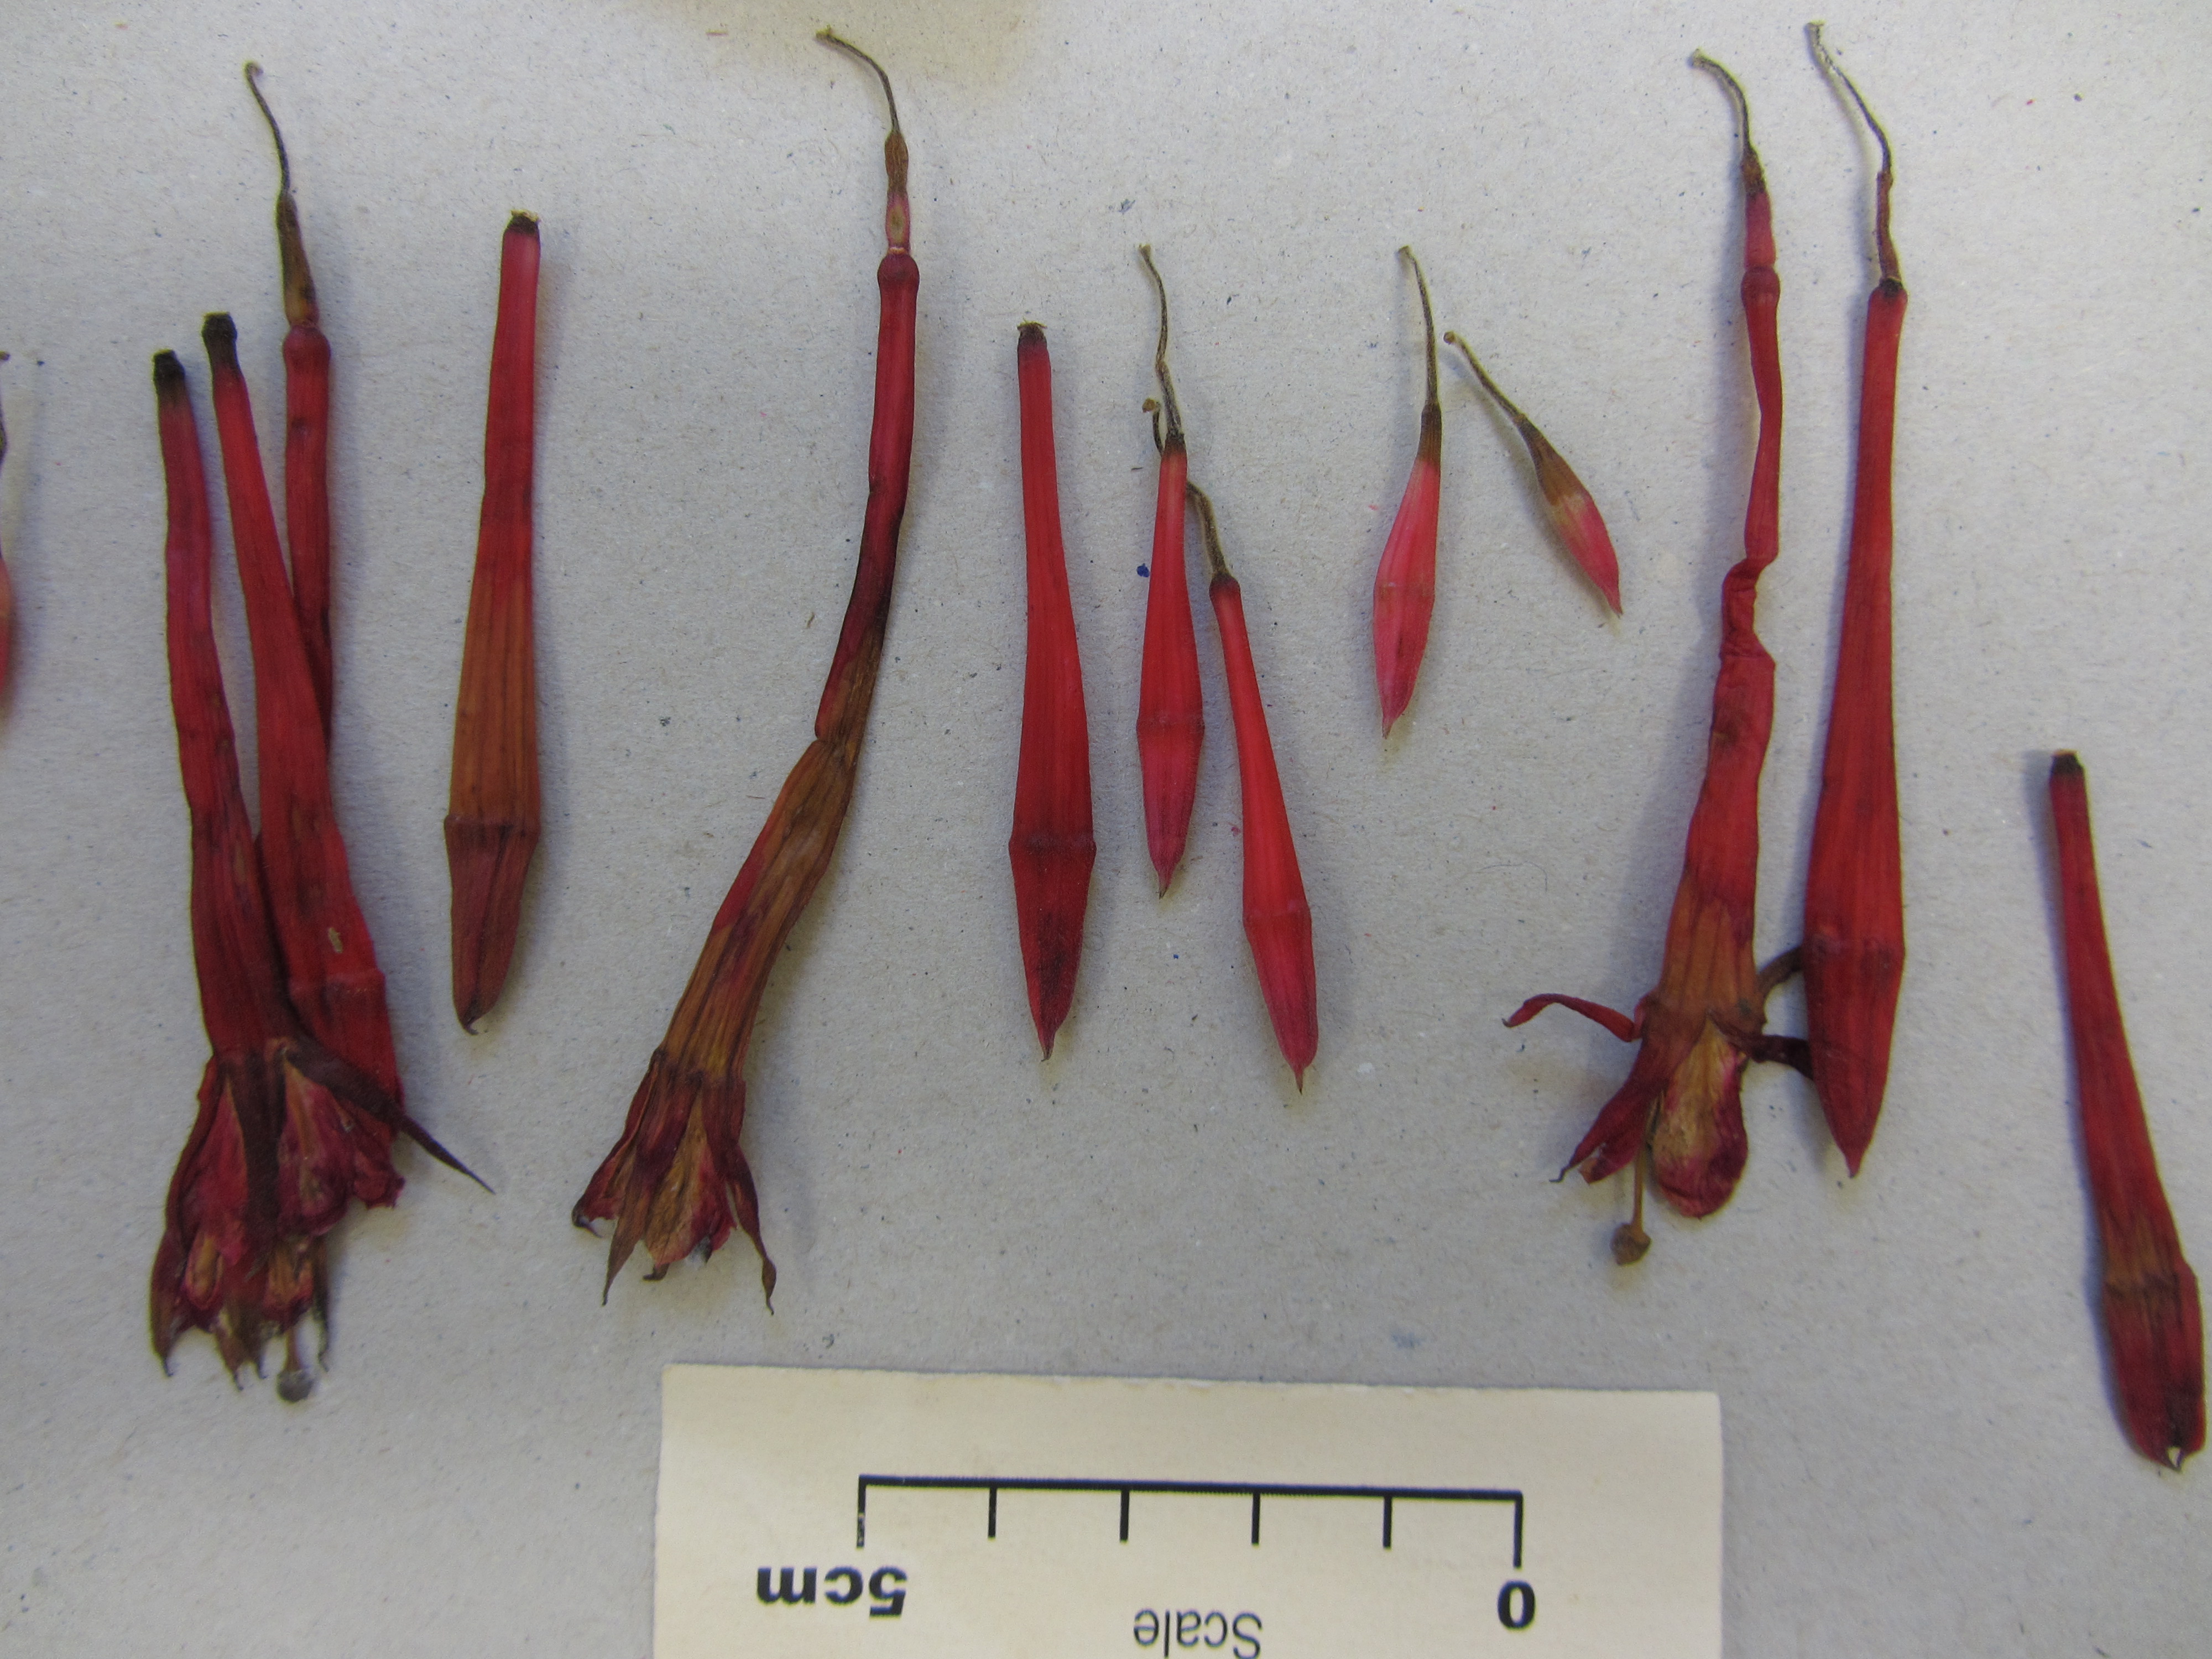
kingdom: Plantae
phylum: Tracheophyta
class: Magnoliopsida
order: Myrtales
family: Onagraceae
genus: Fuchsia
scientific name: Fuchsia boliviana
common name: Bolivian fuchsia
